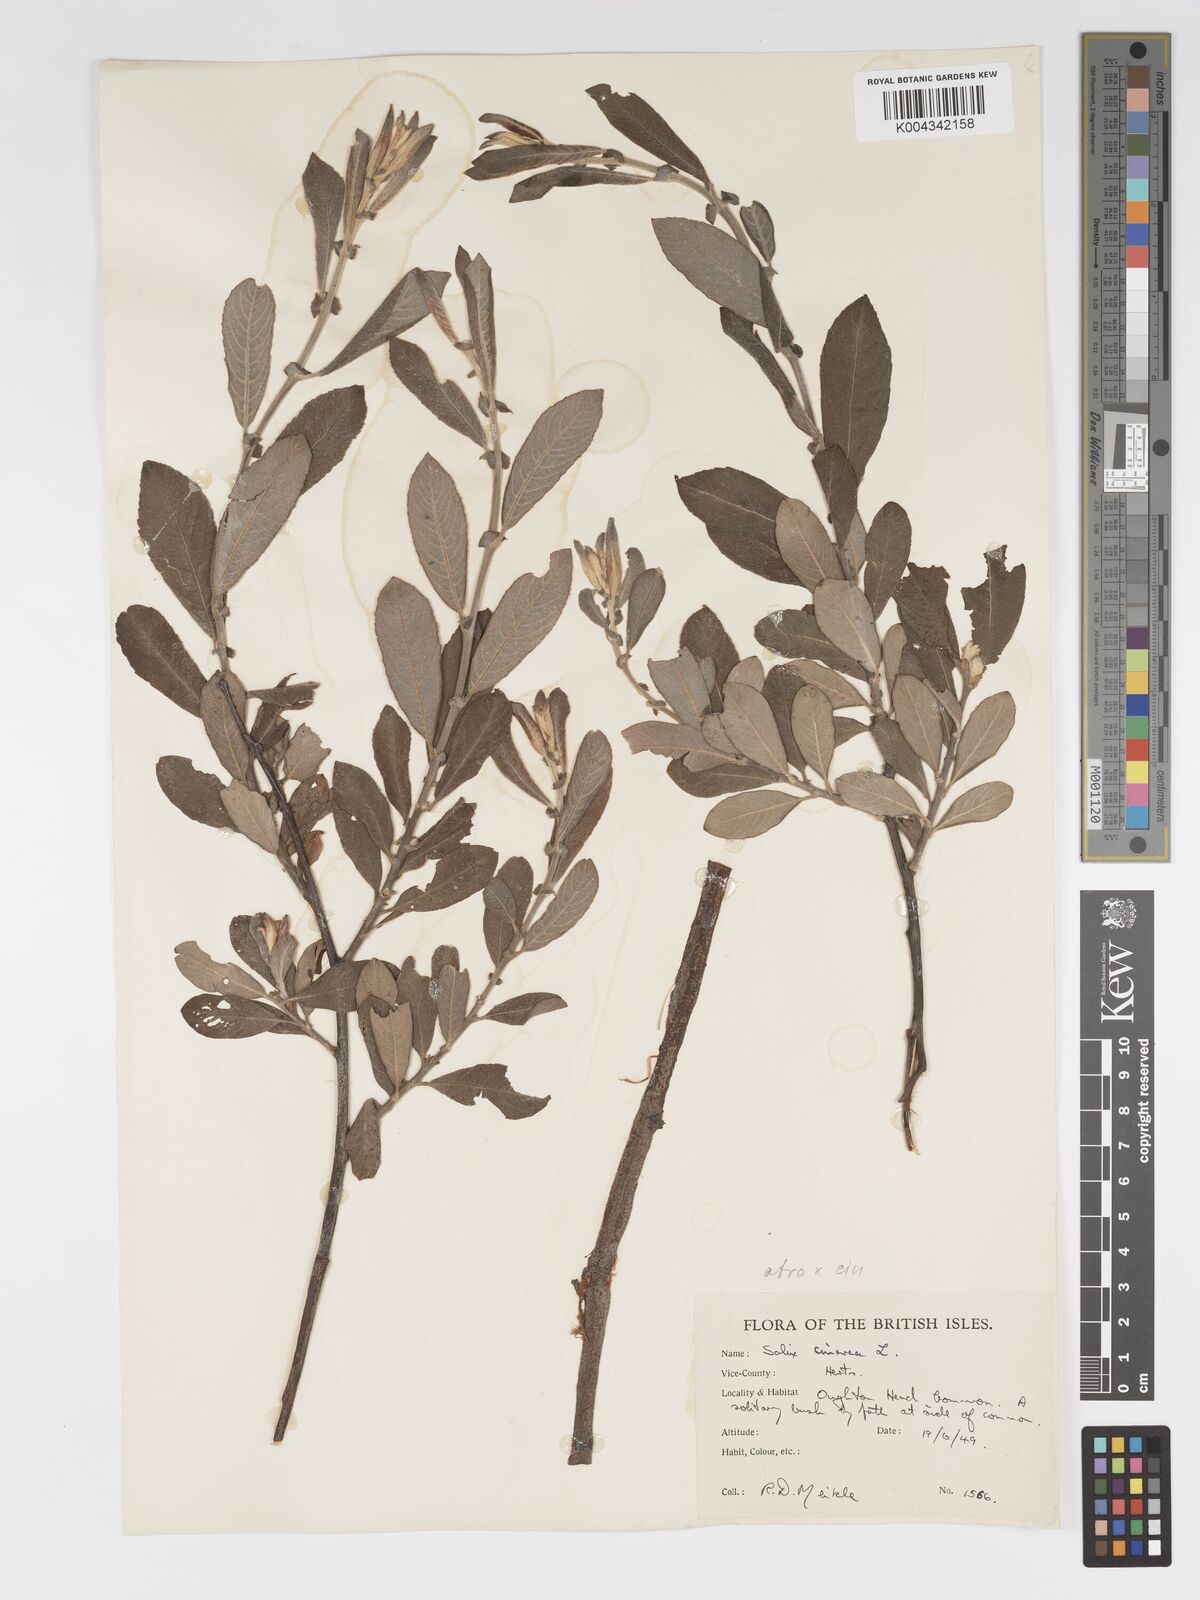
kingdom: Plantae
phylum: Tracheophyta
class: Magnoliopsida
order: Malpighiales
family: Salicaceae
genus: Salix
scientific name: Salix
